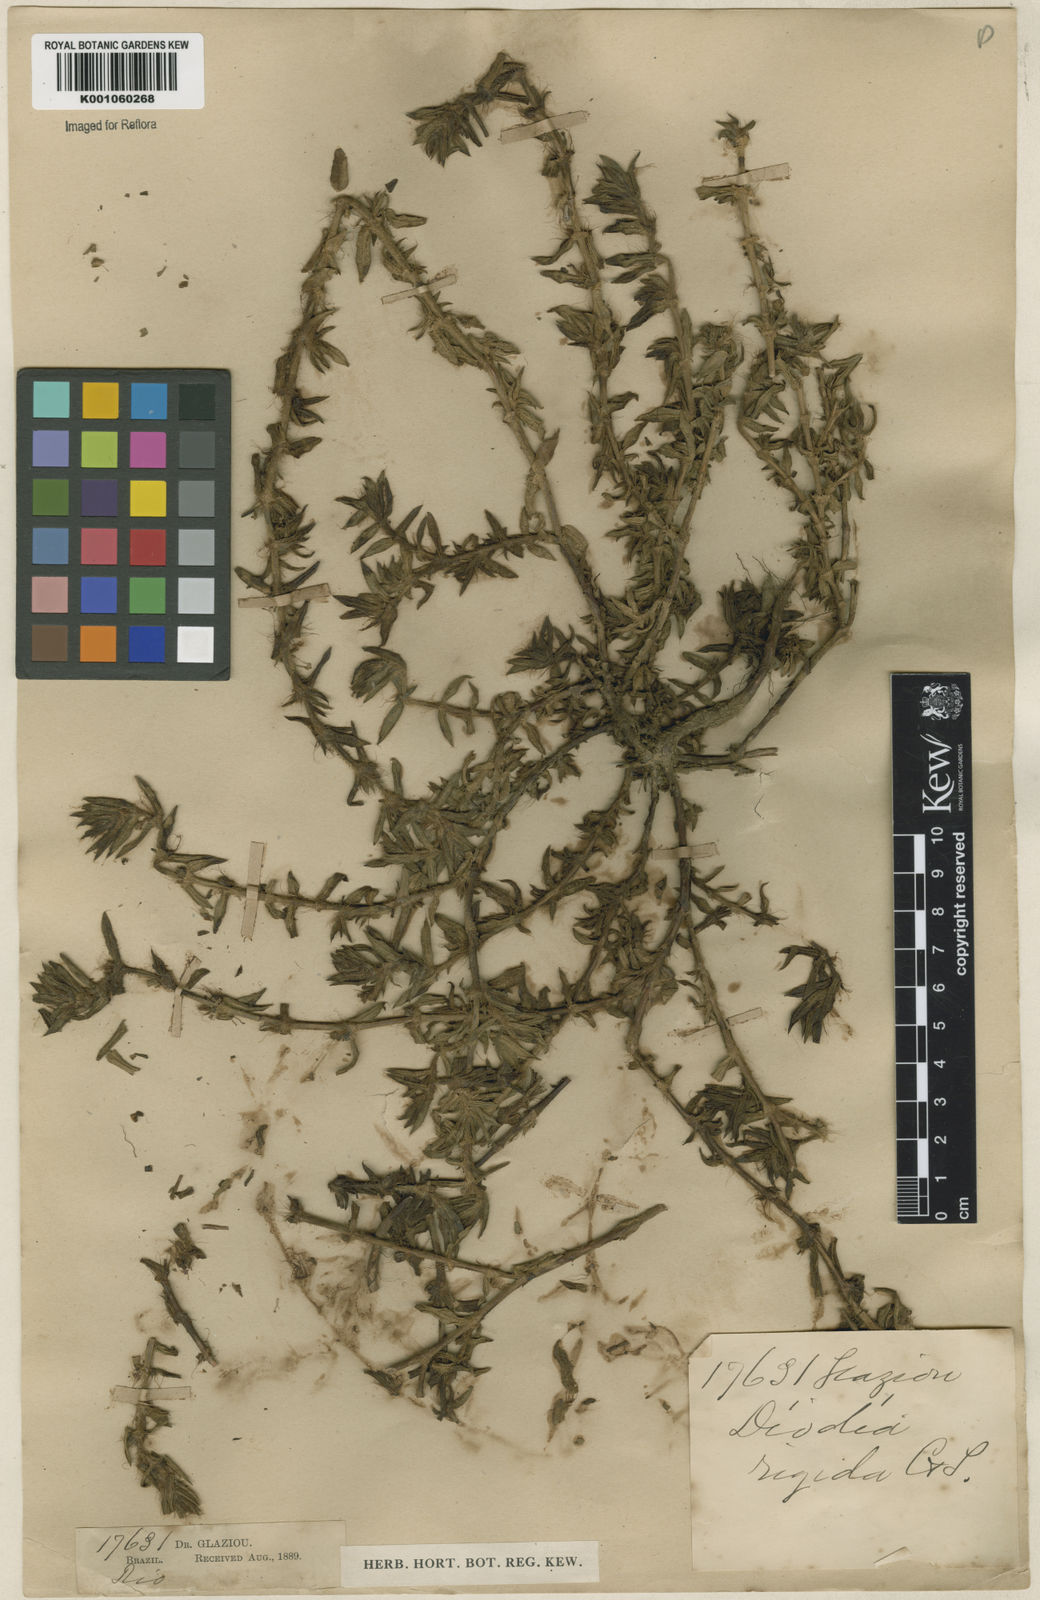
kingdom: Plantae
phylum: Tracheophyta
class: Magnoliopsida
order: Gentianales
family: Rubiaceae
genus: Hexasepalum
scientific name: Hexasepalum apiculatum
